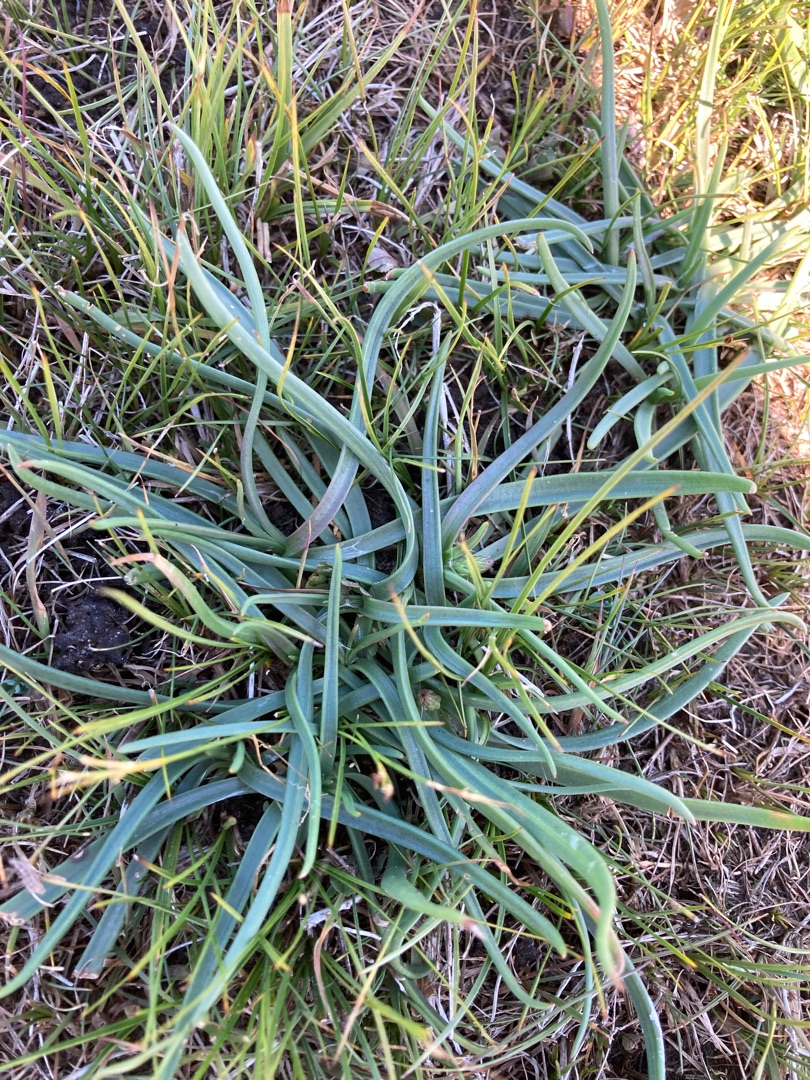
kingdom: Plantae
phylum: Tracheophyta
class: Magnoliopsida
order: Lamiales
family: Plantaginaceae
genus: Plantago
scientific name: Plantago maritima
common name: Strand-vejbred
